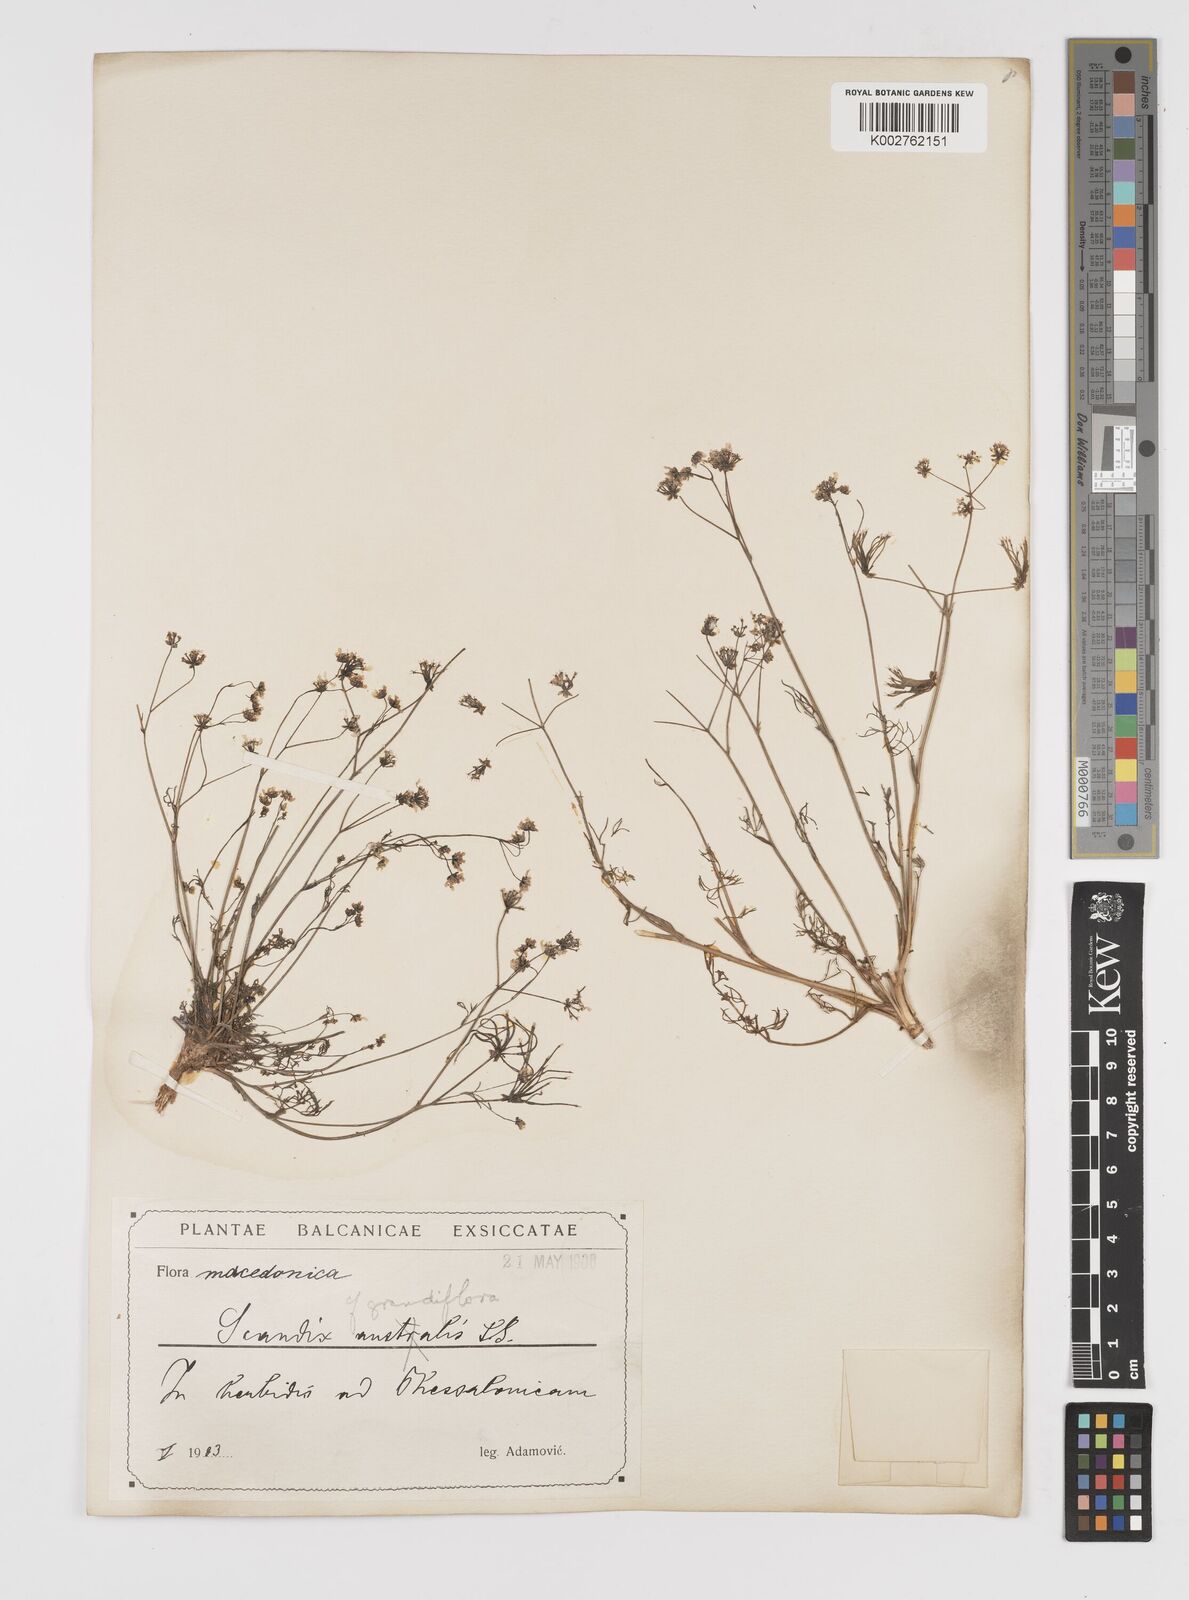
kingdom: Plantae
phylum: Tracheophyta
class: Magnoliopsida
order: Apiales
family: Apiaceae
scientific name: Apiaceae
